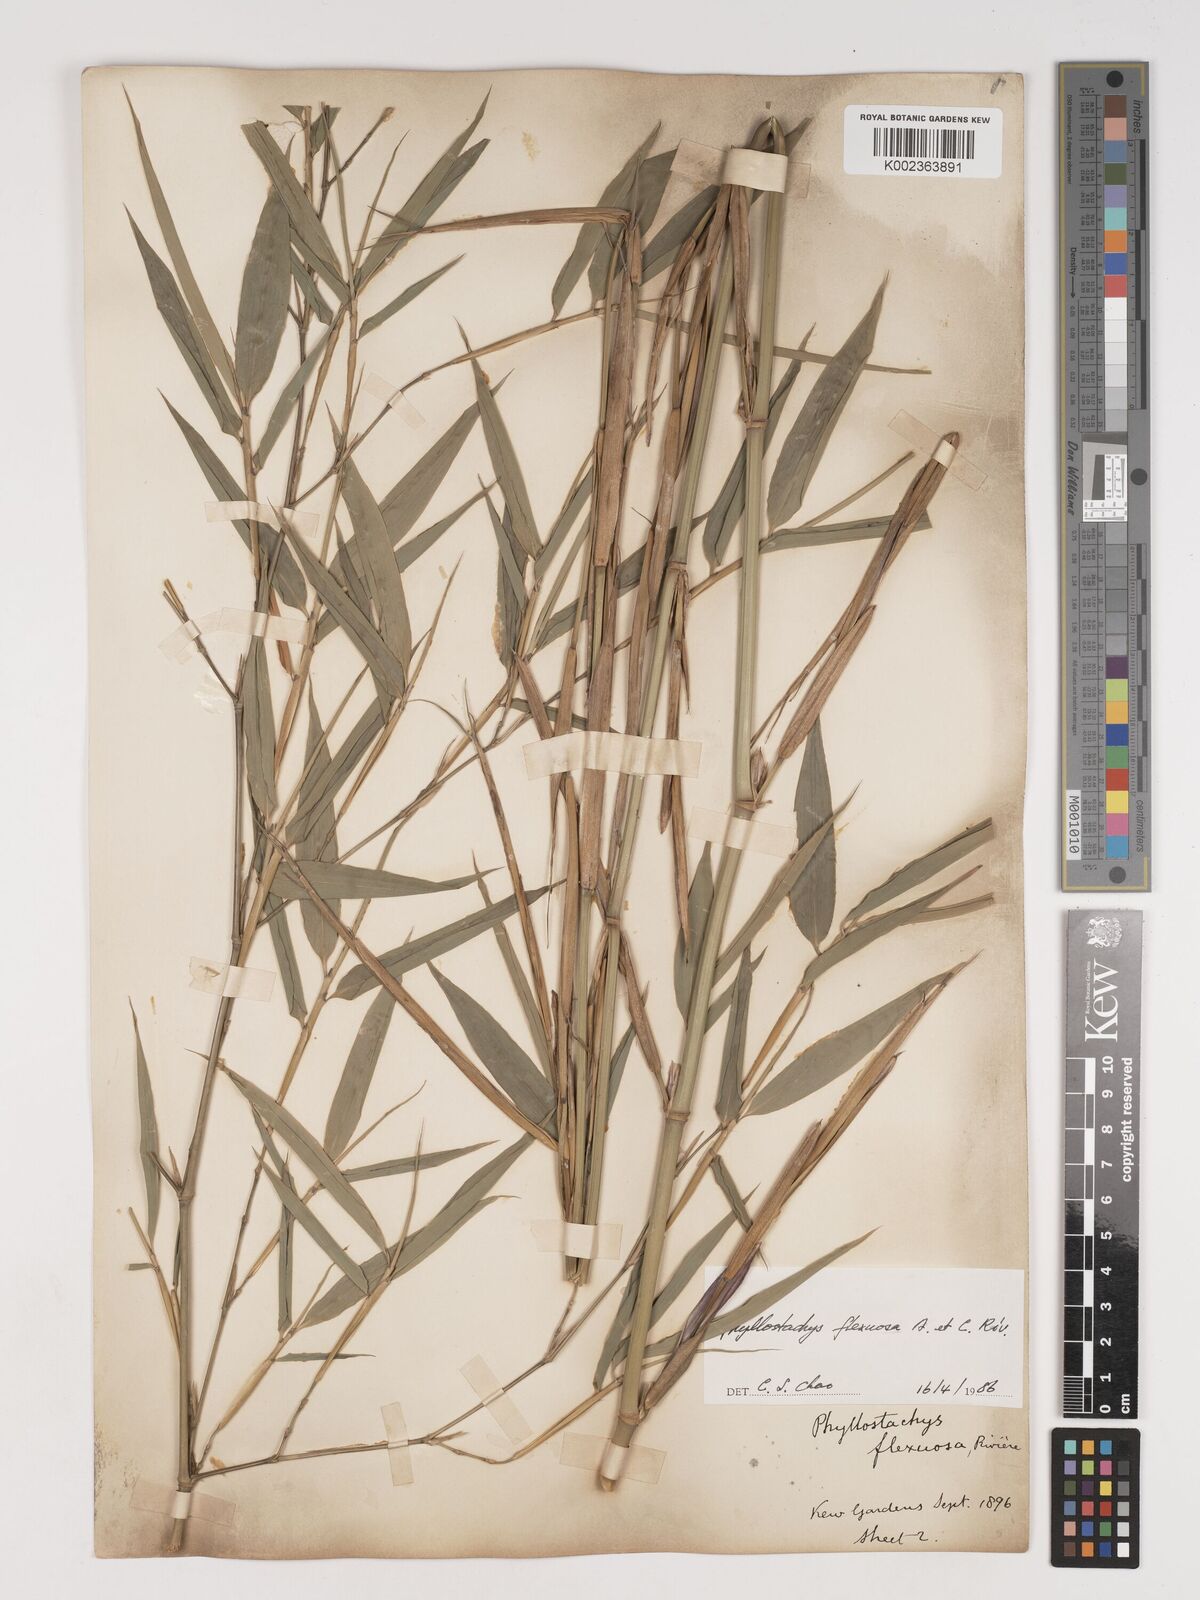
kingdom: Plantae
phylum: Tracheophyta
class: Liliopsida
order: Poales
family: Poaceae
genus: Phyllostachys
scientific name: Phyllostachys flexuosa
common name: Drooping timber bamboo
